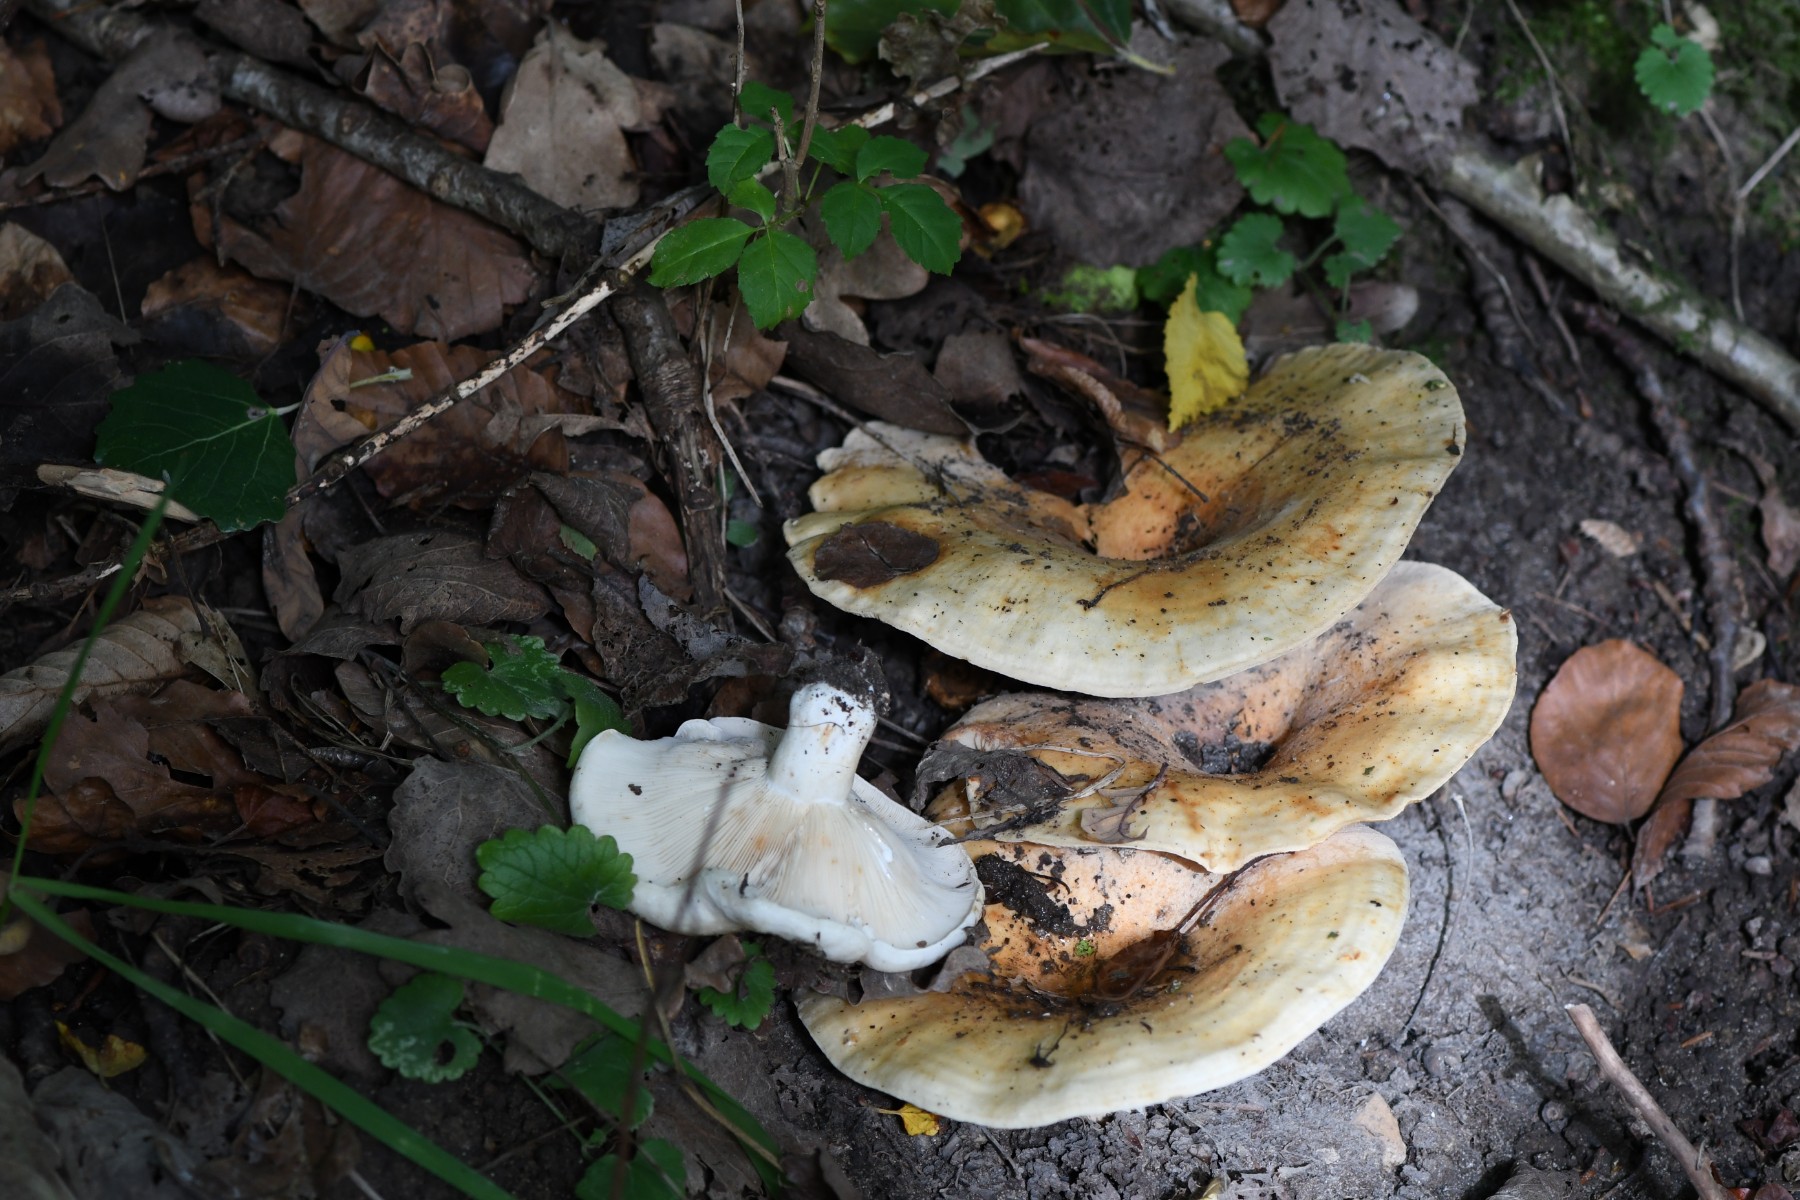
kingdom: Fungi
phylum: Basidiomycota
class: Agaricomycetes
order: Russulales
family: Russulaceae
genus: Lactarius
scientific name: Lactarius evosmus
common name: bæltet mælkehat
